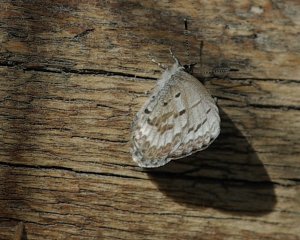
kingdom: Animalia
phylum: Arthropoda
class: Insecta
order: Lepidoptera
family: Lycaenidae
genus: Celastrina
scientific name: Celastrina lucia
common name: Northern Spring Azure
